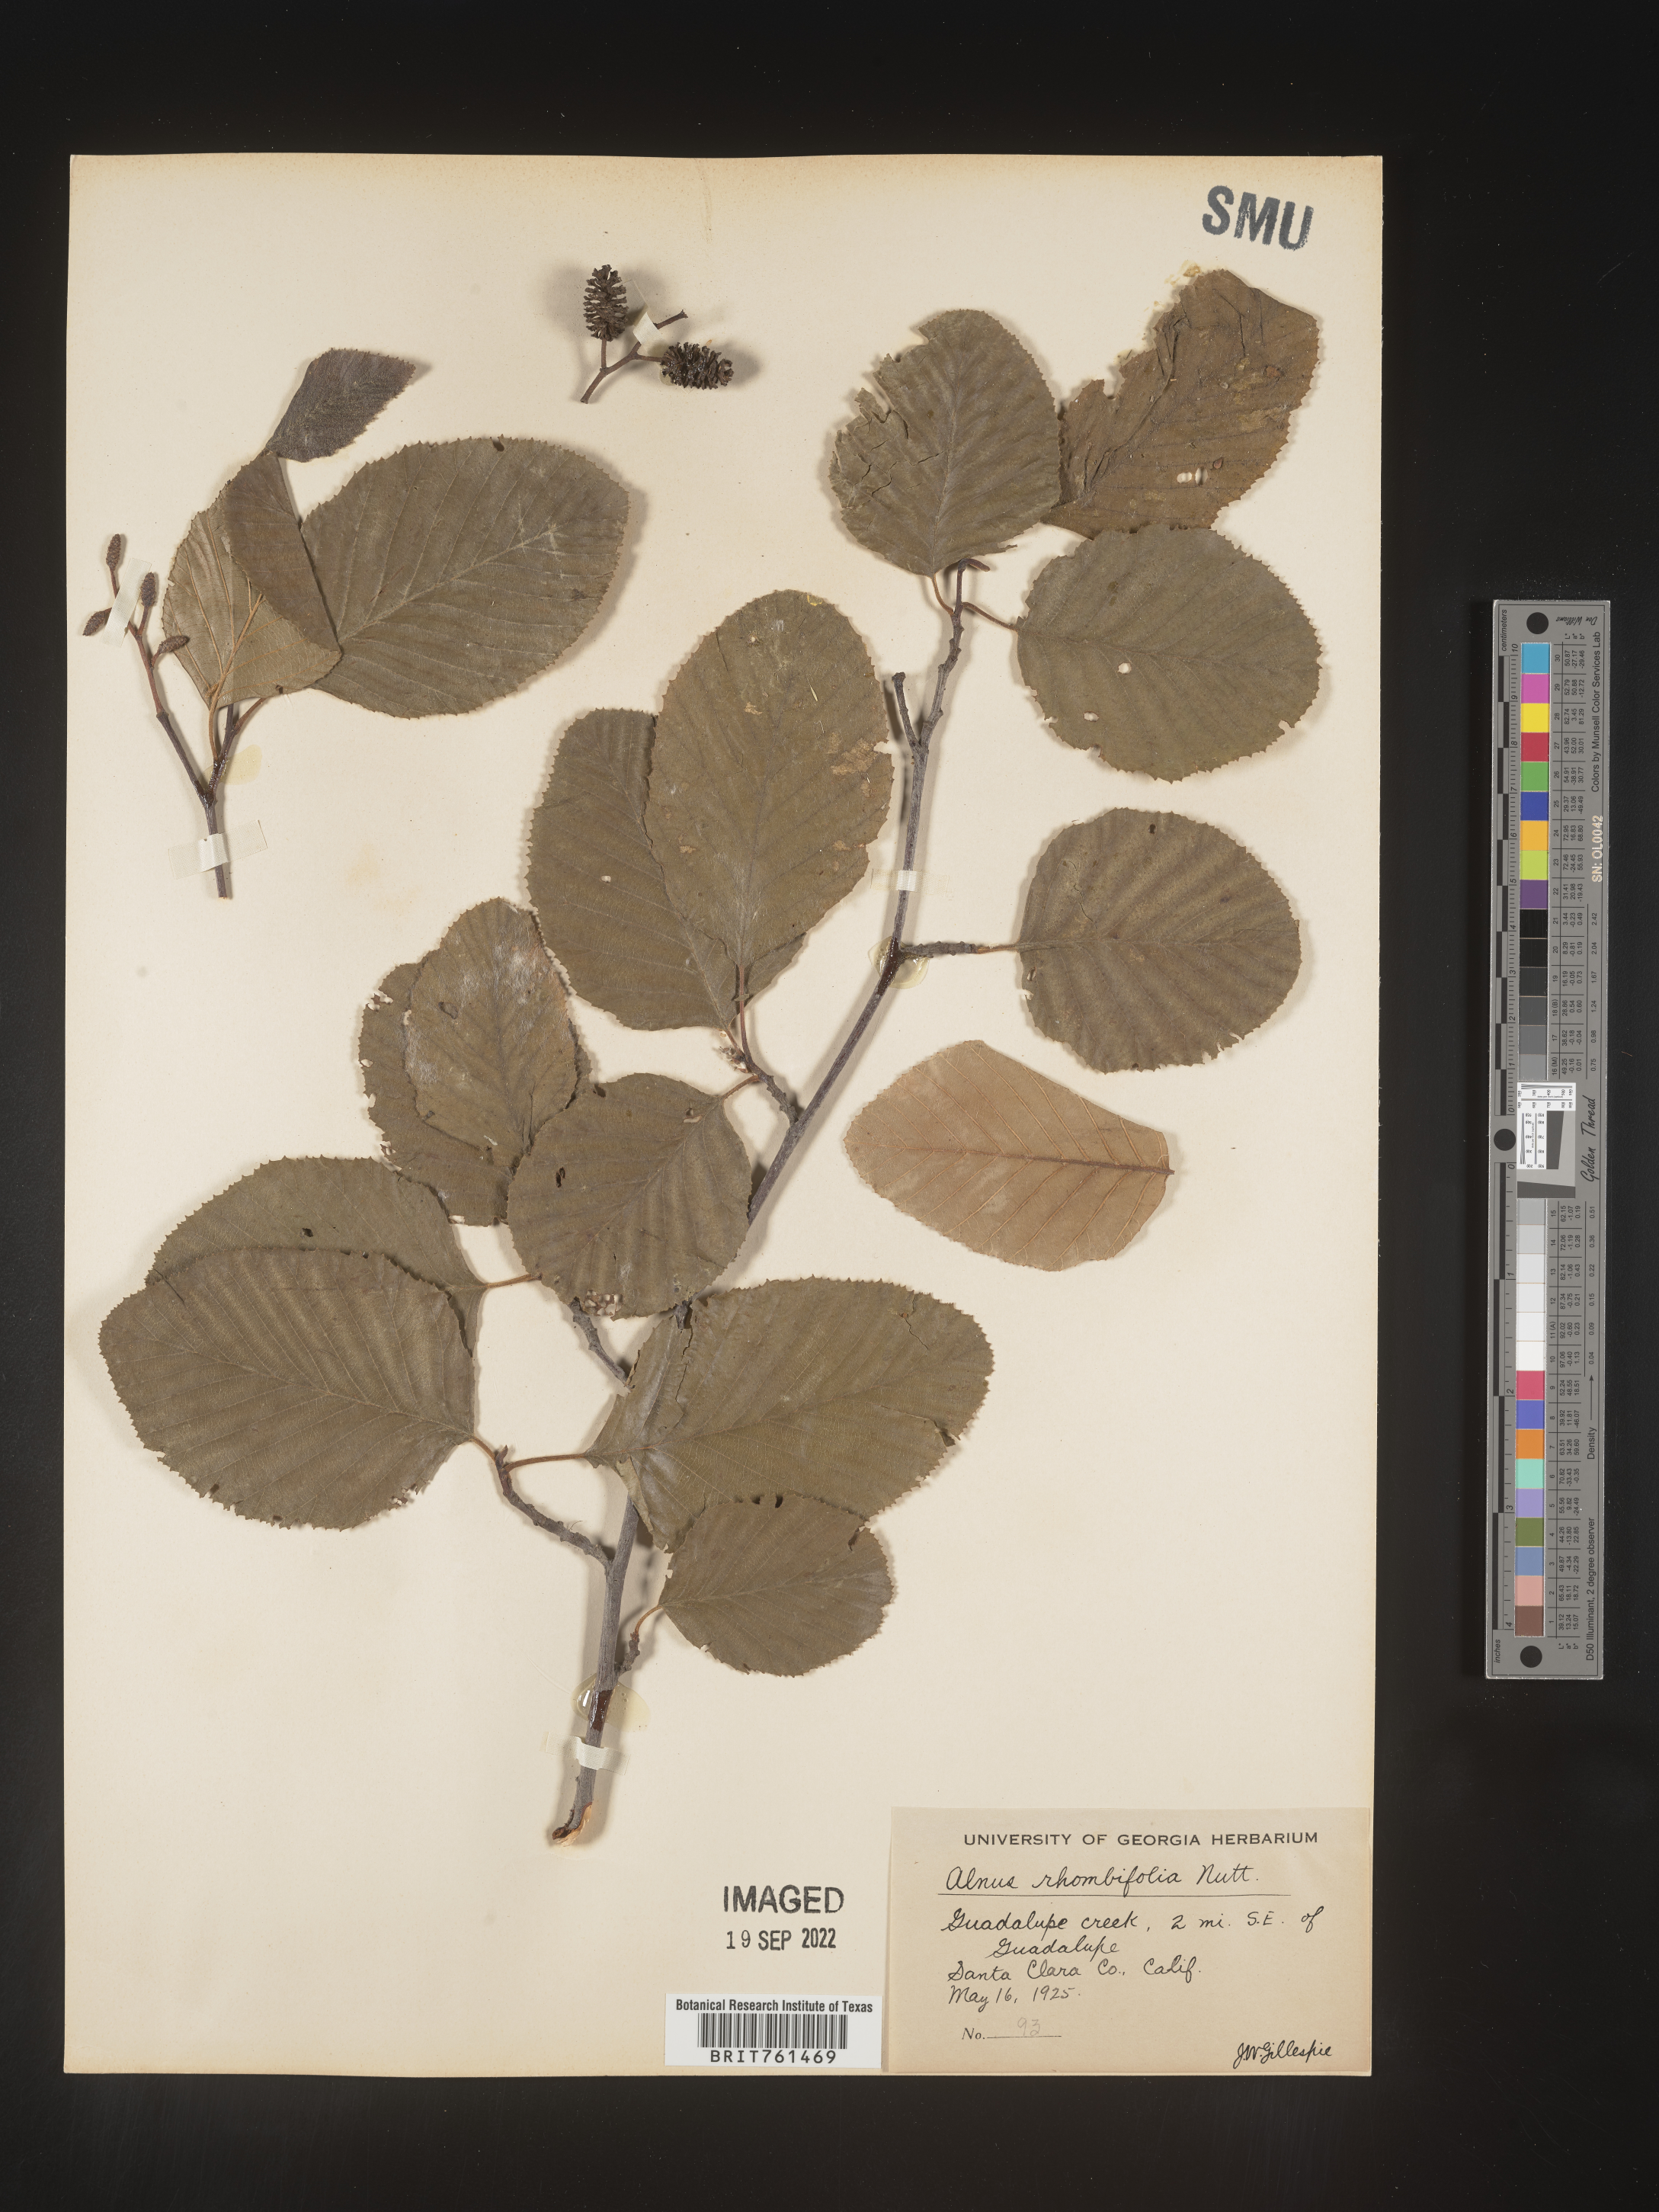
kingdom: Plantae
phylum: Tracheophyta
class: Magnoliopsida
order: Fagales
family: Betulaceae
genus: Alnus
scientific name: Alnus rhombifolia
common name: California alder
